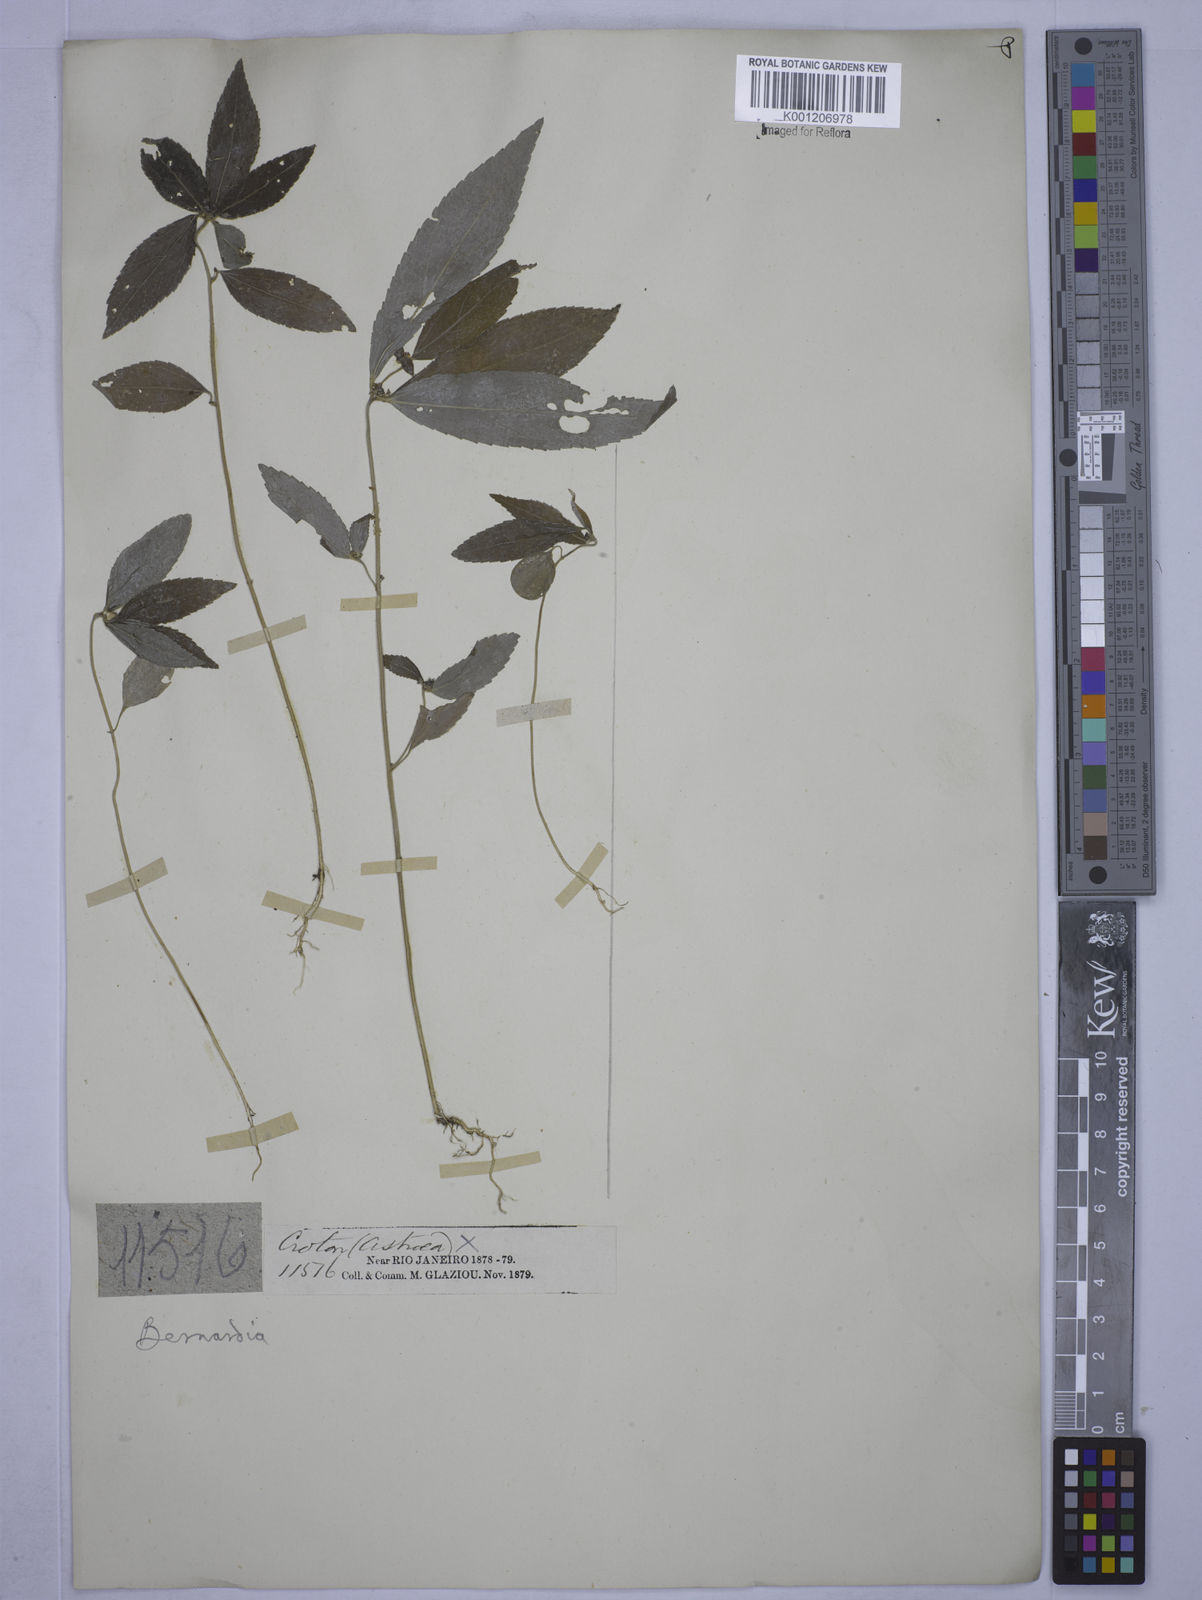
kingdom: Plantae
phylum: Tracheophyta
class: Magnoliopsida
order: Malpighiales
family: Euphorbiaceae
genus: Bernardia
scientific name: Bernardia sidoides
